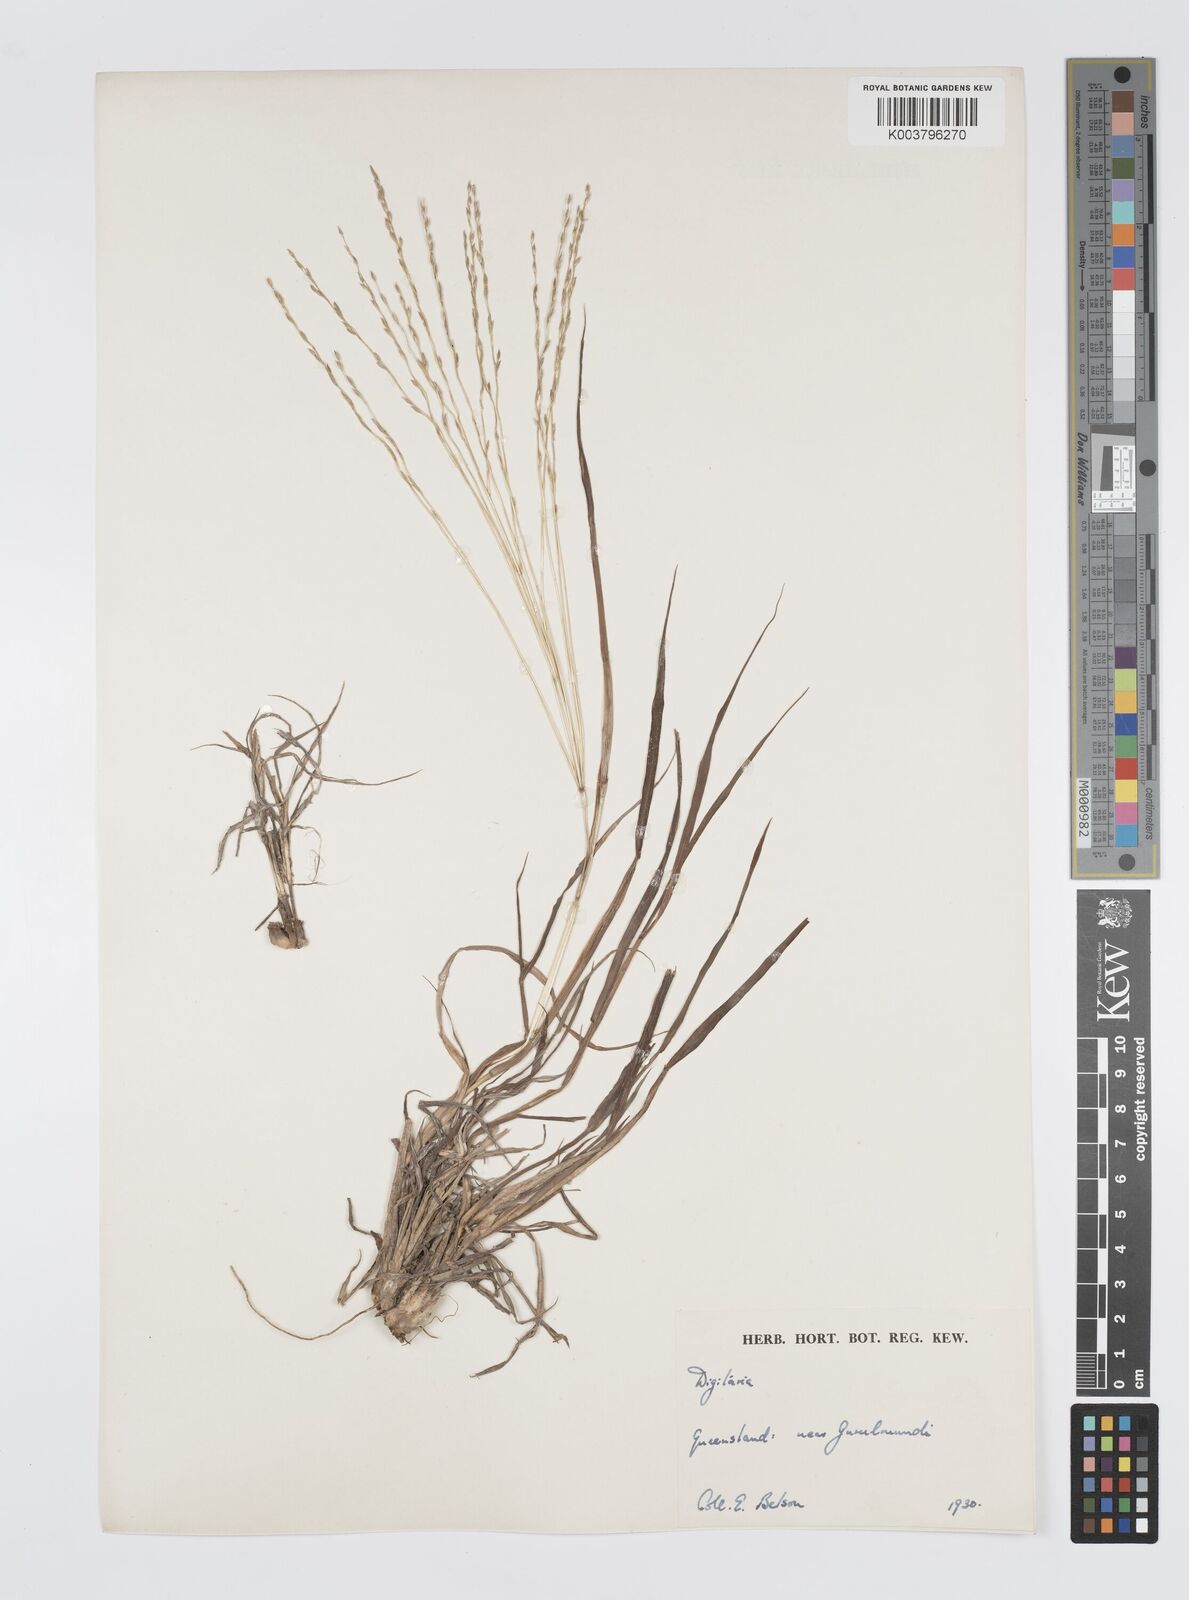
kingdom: Plantae
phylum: Tracheophyta
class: Liliopsida
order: Poales
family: Poaceae
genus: Digitaria
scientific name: Digitaria divaricatissima
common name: Crabgrass
